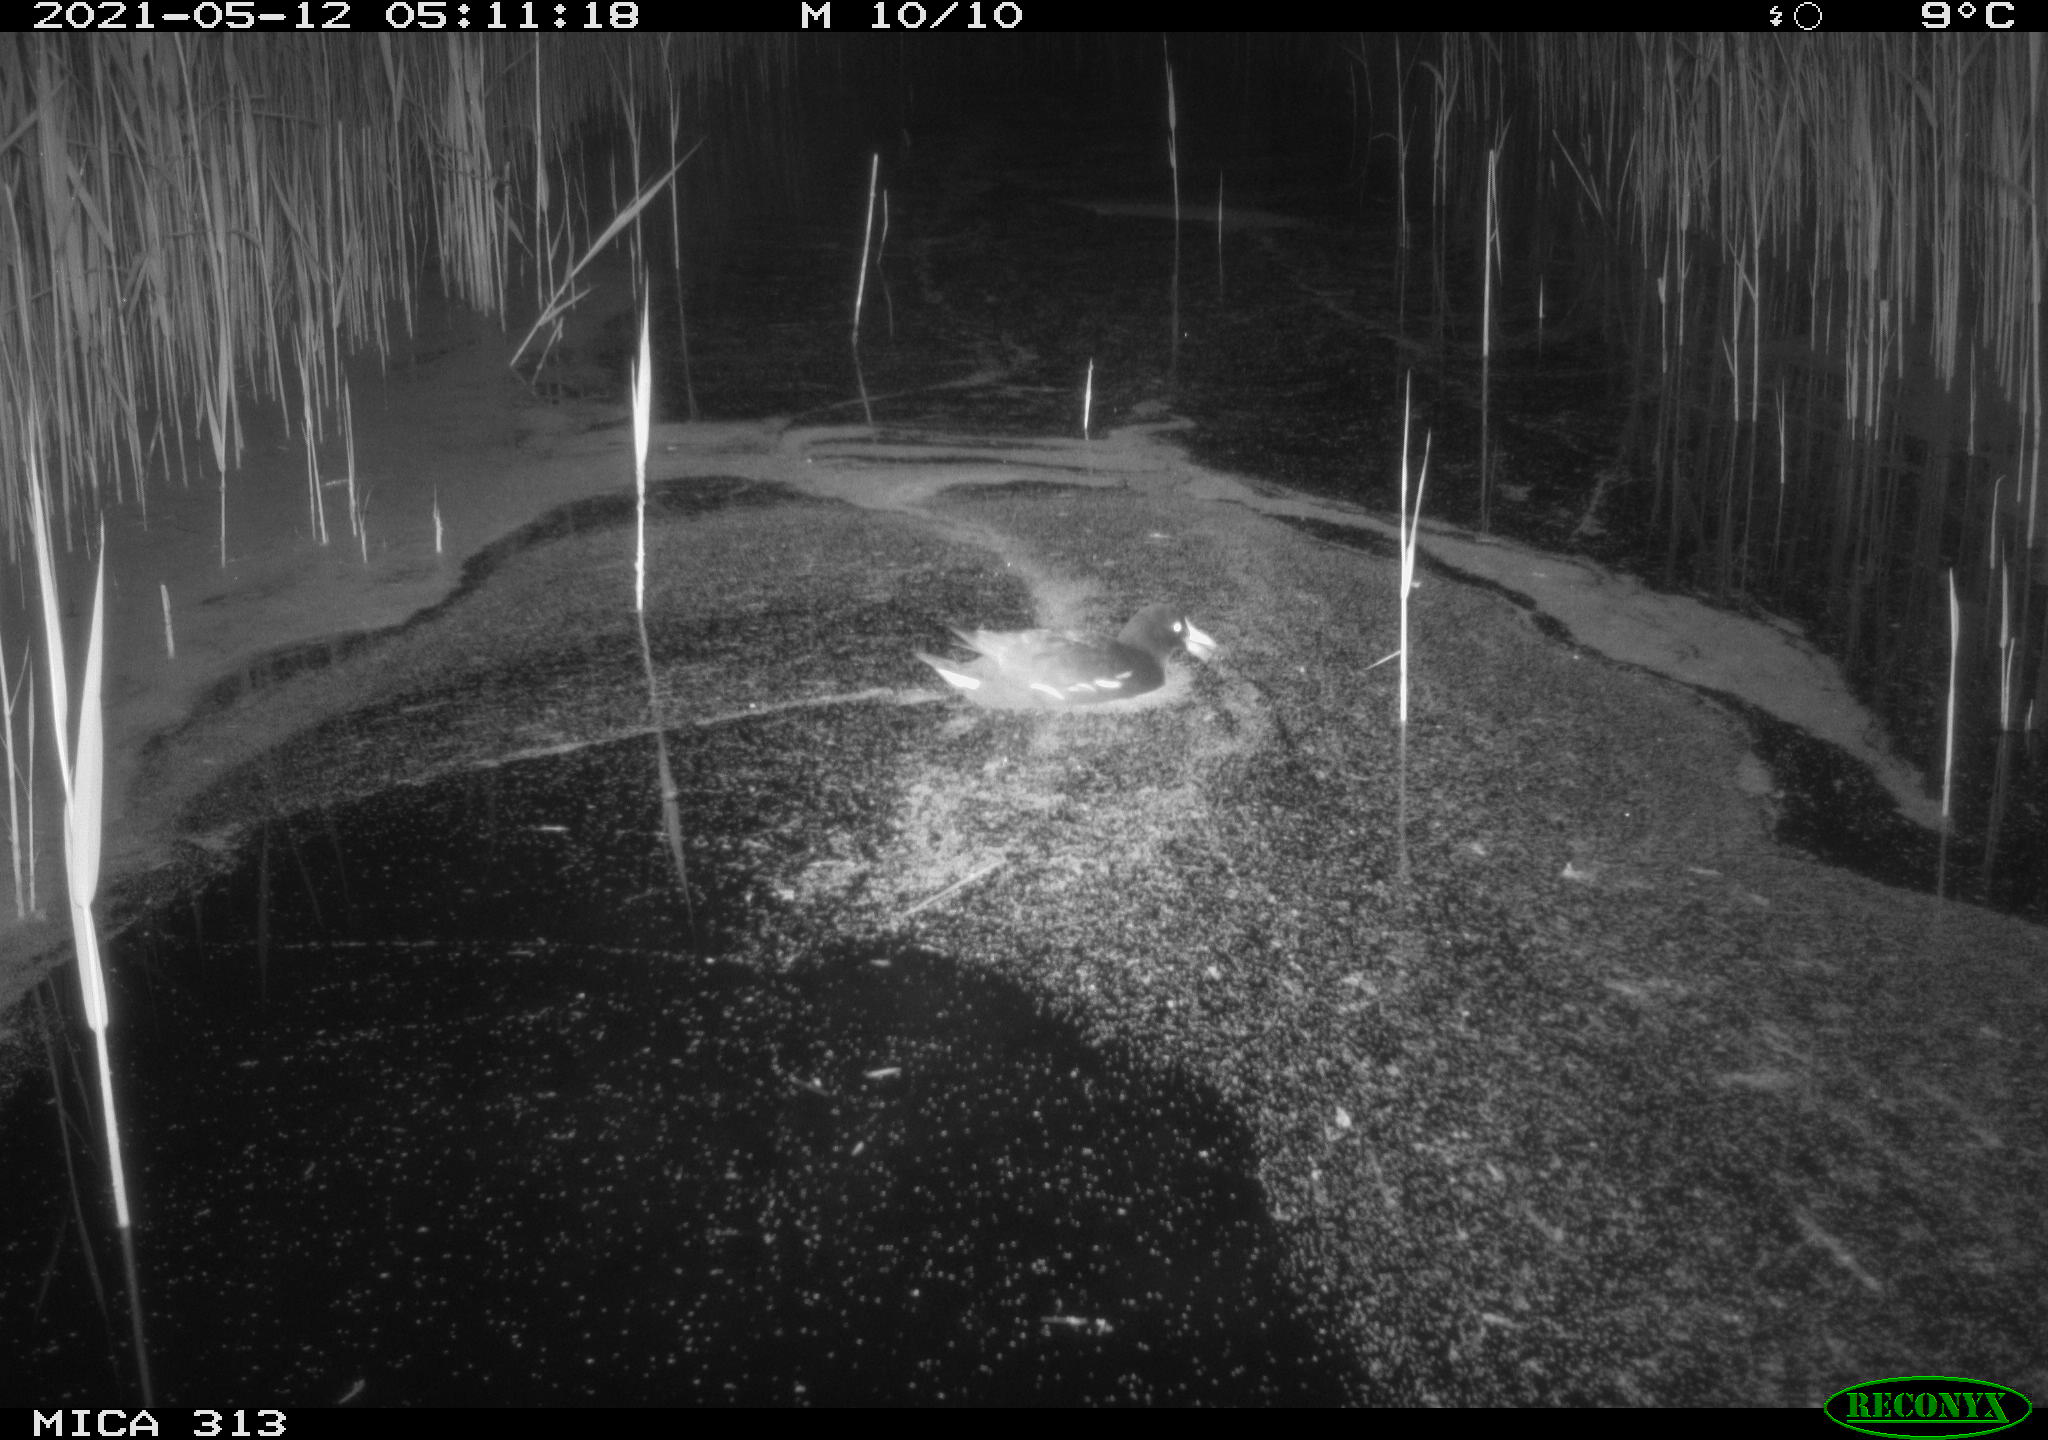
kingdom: Animalia
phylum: Chordata
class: Aves
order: Gruiformes
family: Rallidae
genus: Gallinula
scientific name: Gallinula chloropus
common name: Common moorhen
